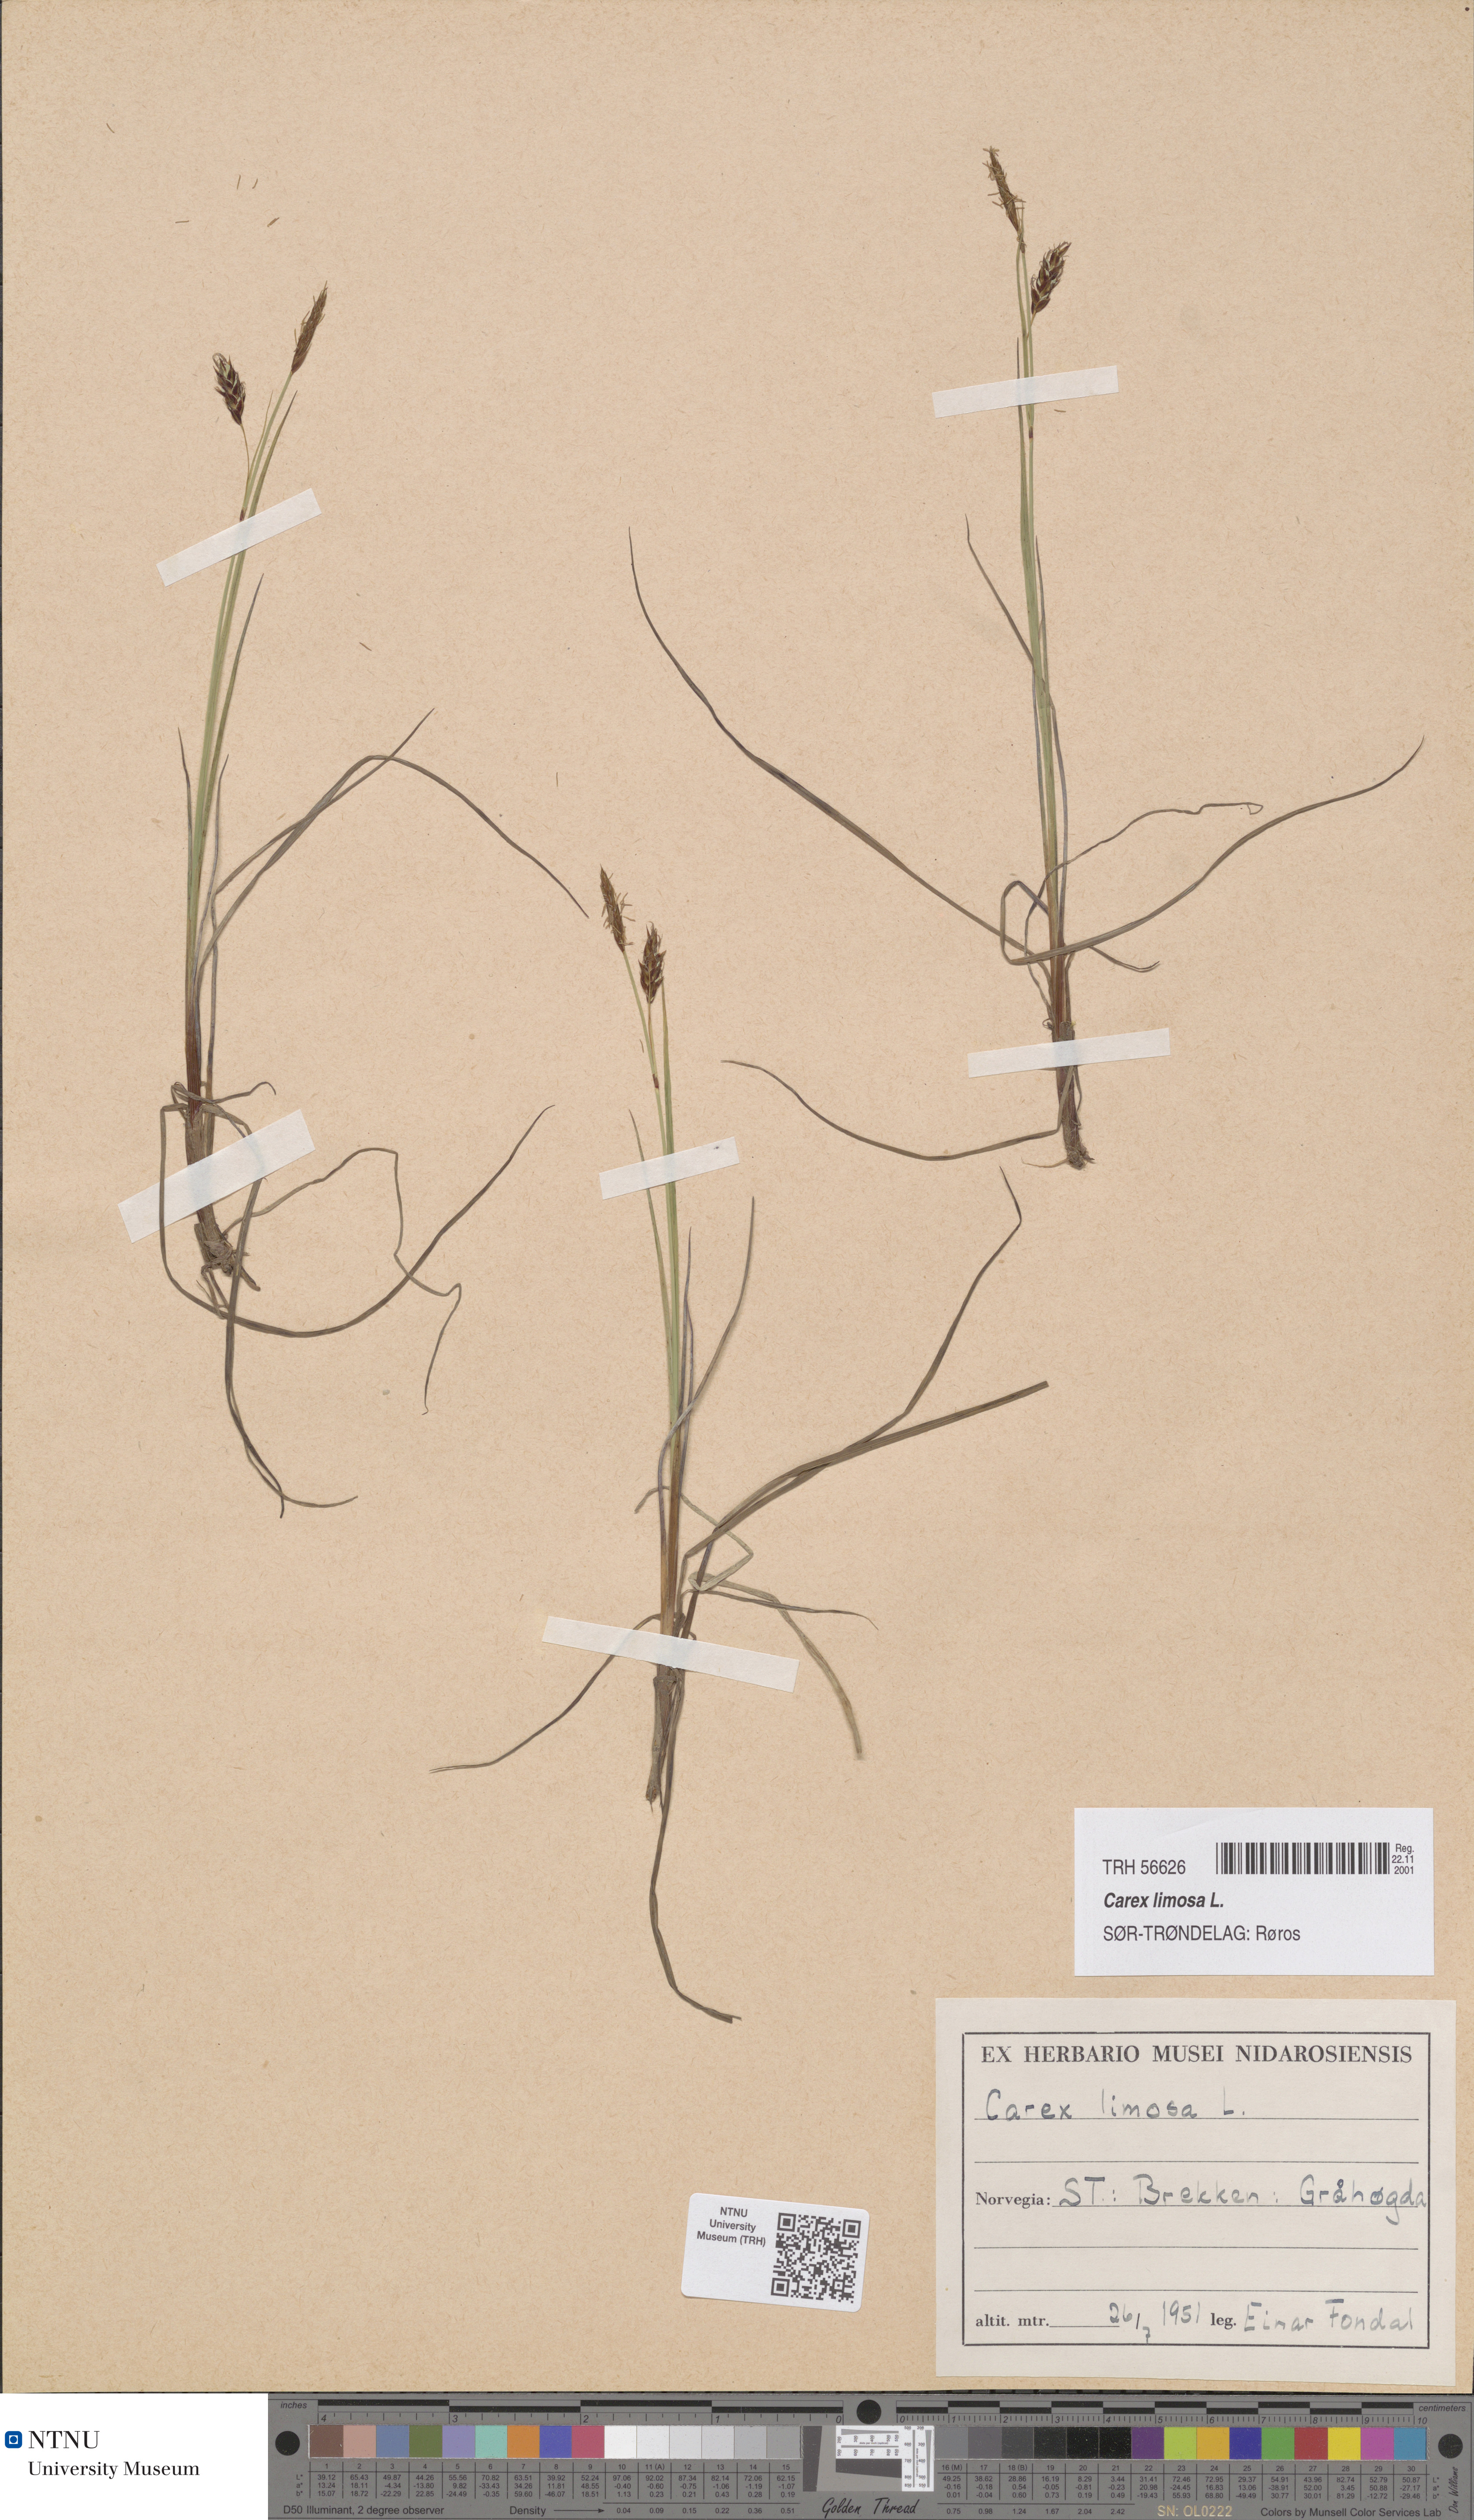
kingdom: Plantae
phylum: Tracheophyta
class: Liliopsida
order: Poales
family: Cyperaceae
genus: Carex
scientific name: Carex limosa
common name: Bog sedge
